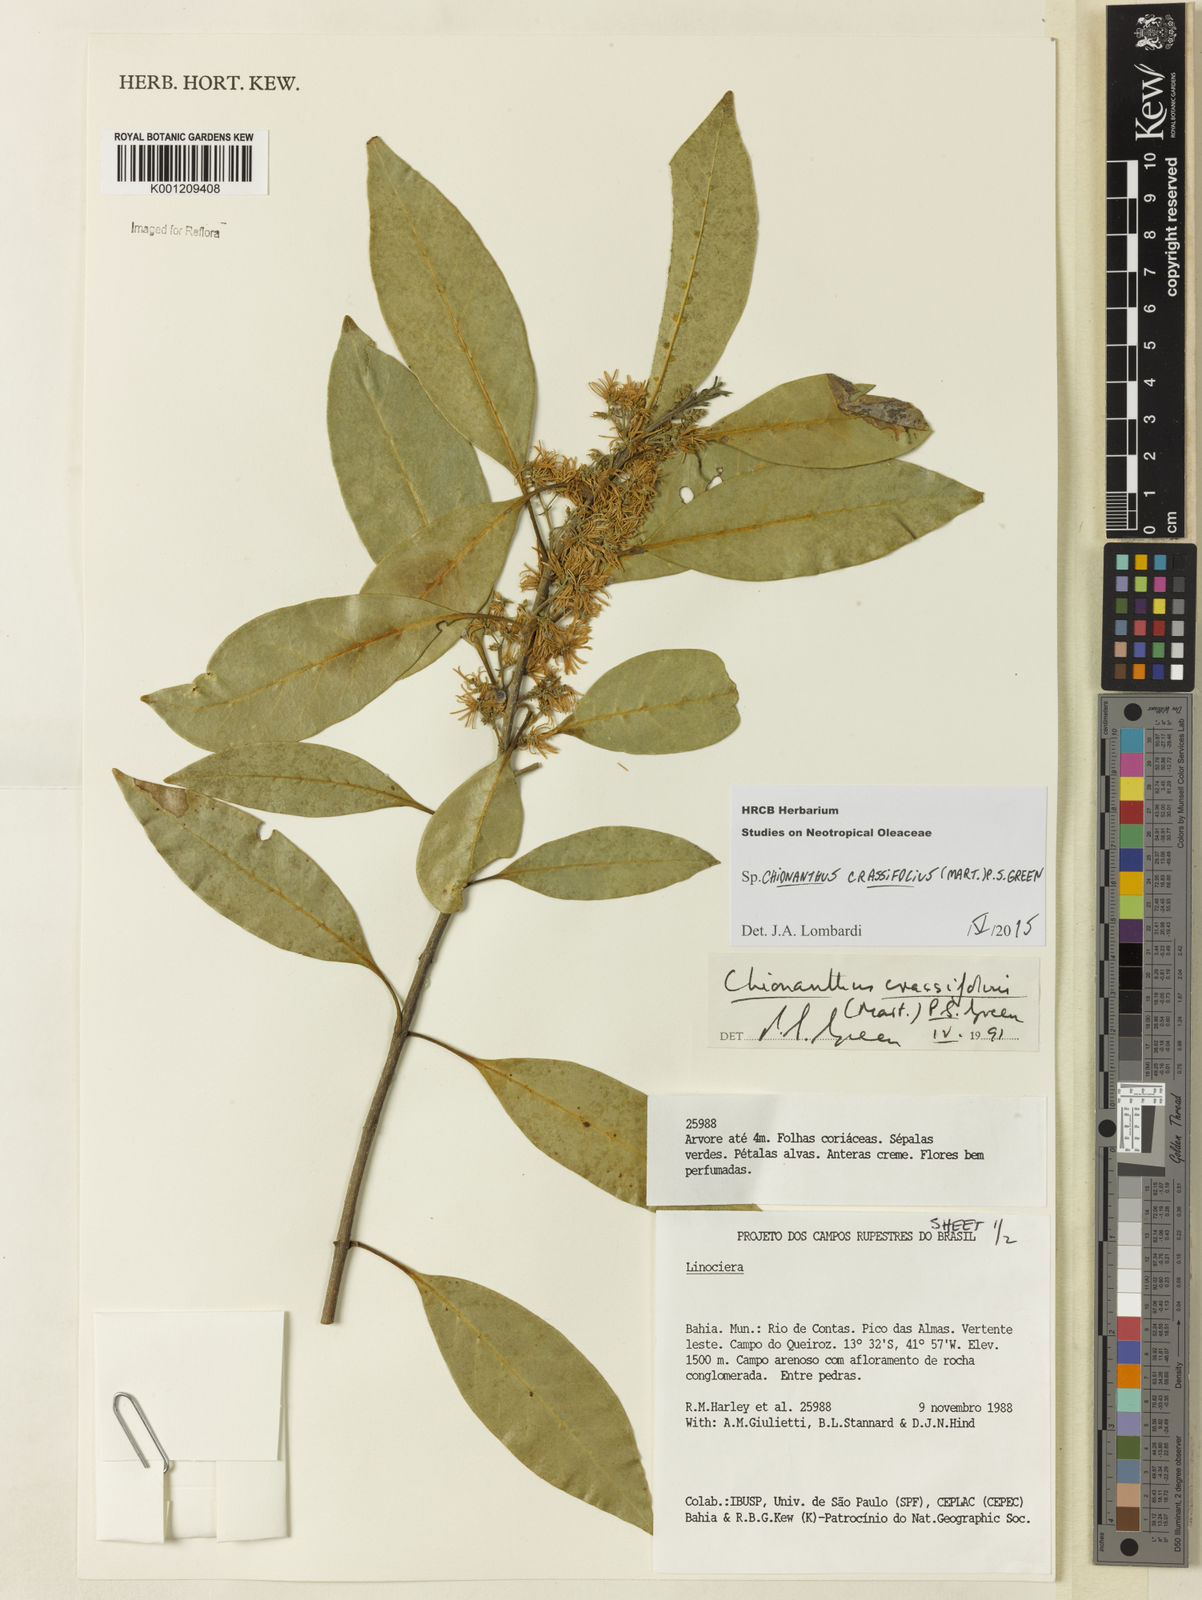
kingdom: Plantae
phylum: Tracheophyta
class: Magnoliopsida
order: Lamiales
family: Oleaceae
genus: Chionanthus
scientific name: Chionanthus crassifolius
